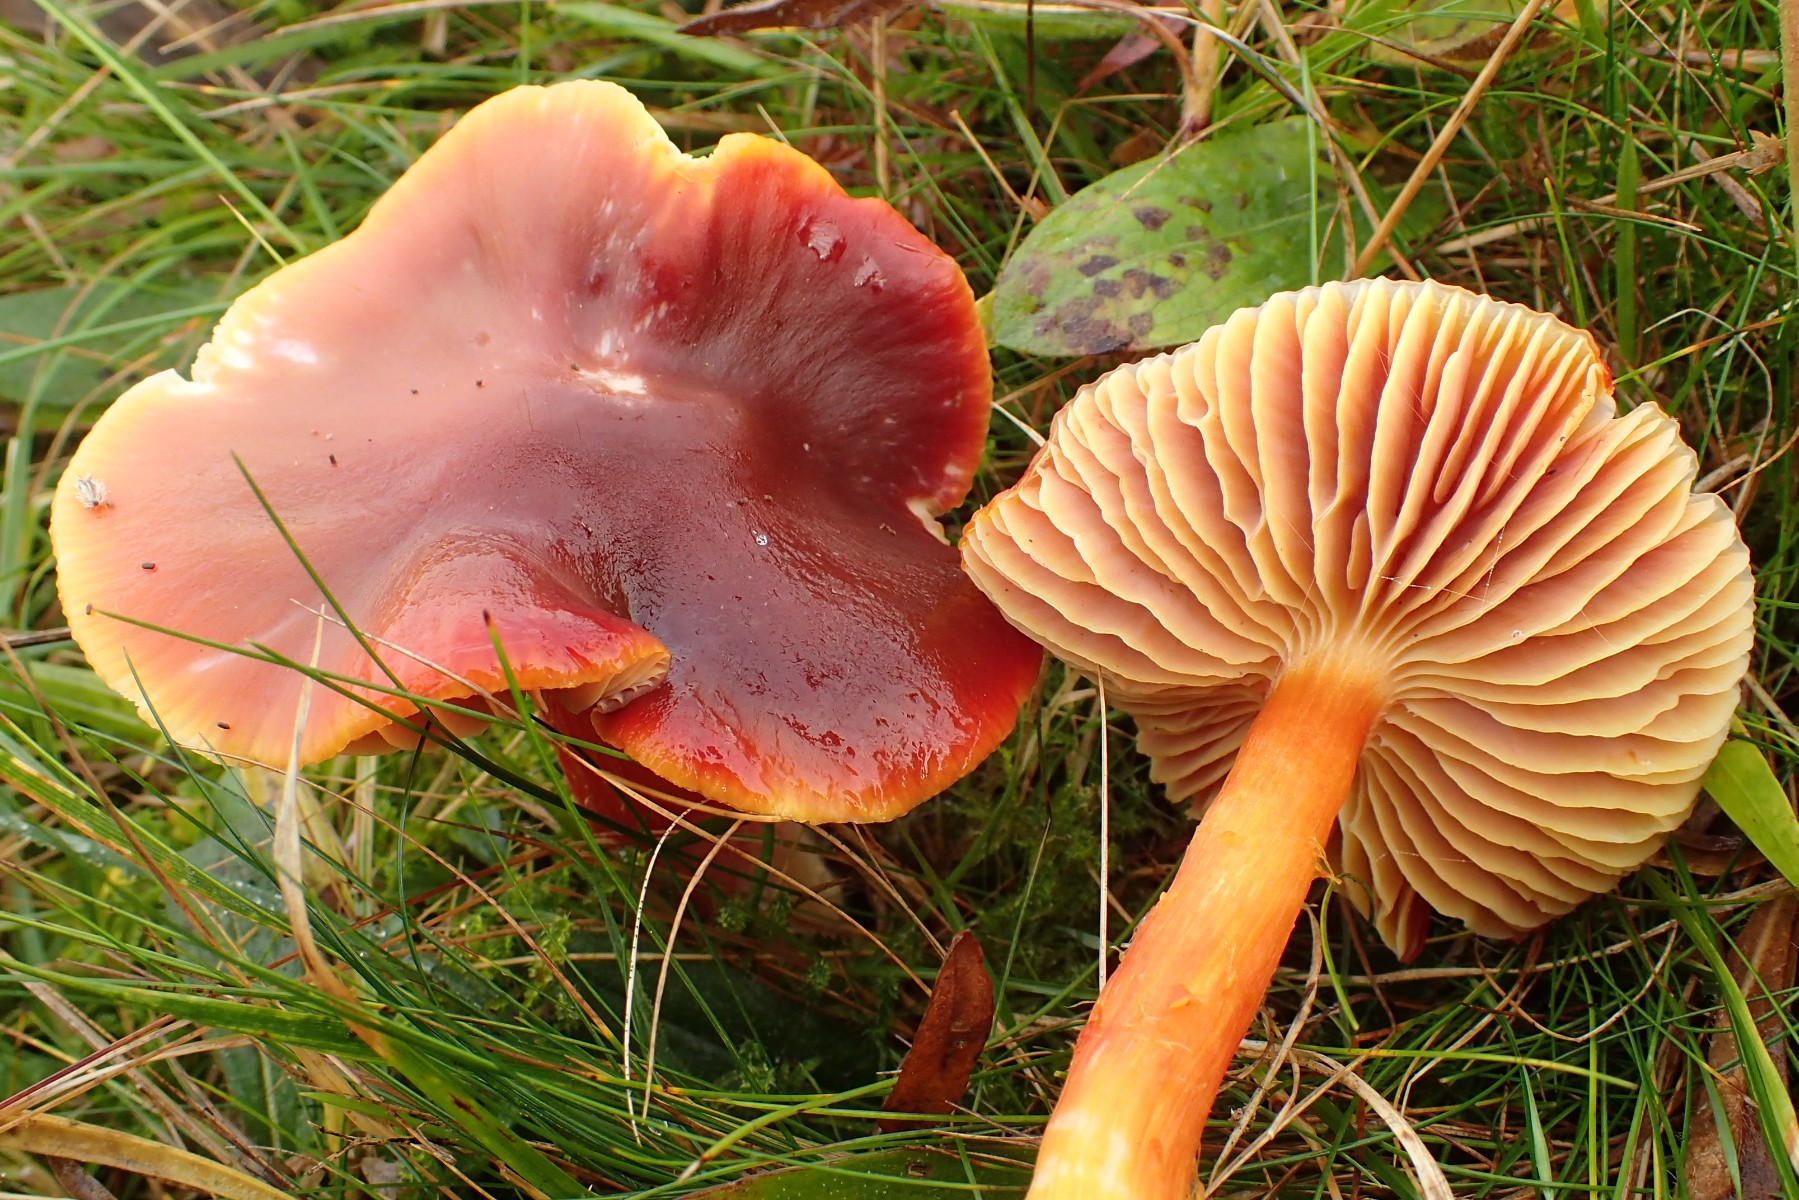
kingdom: Fungi
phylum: Basidiomycota
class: Agaricomycetes
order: Agaricales
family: Hygrophoraceae
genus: Hygrocybe
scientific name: Hygrocybe punicea
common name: skarlagen-vokshat
